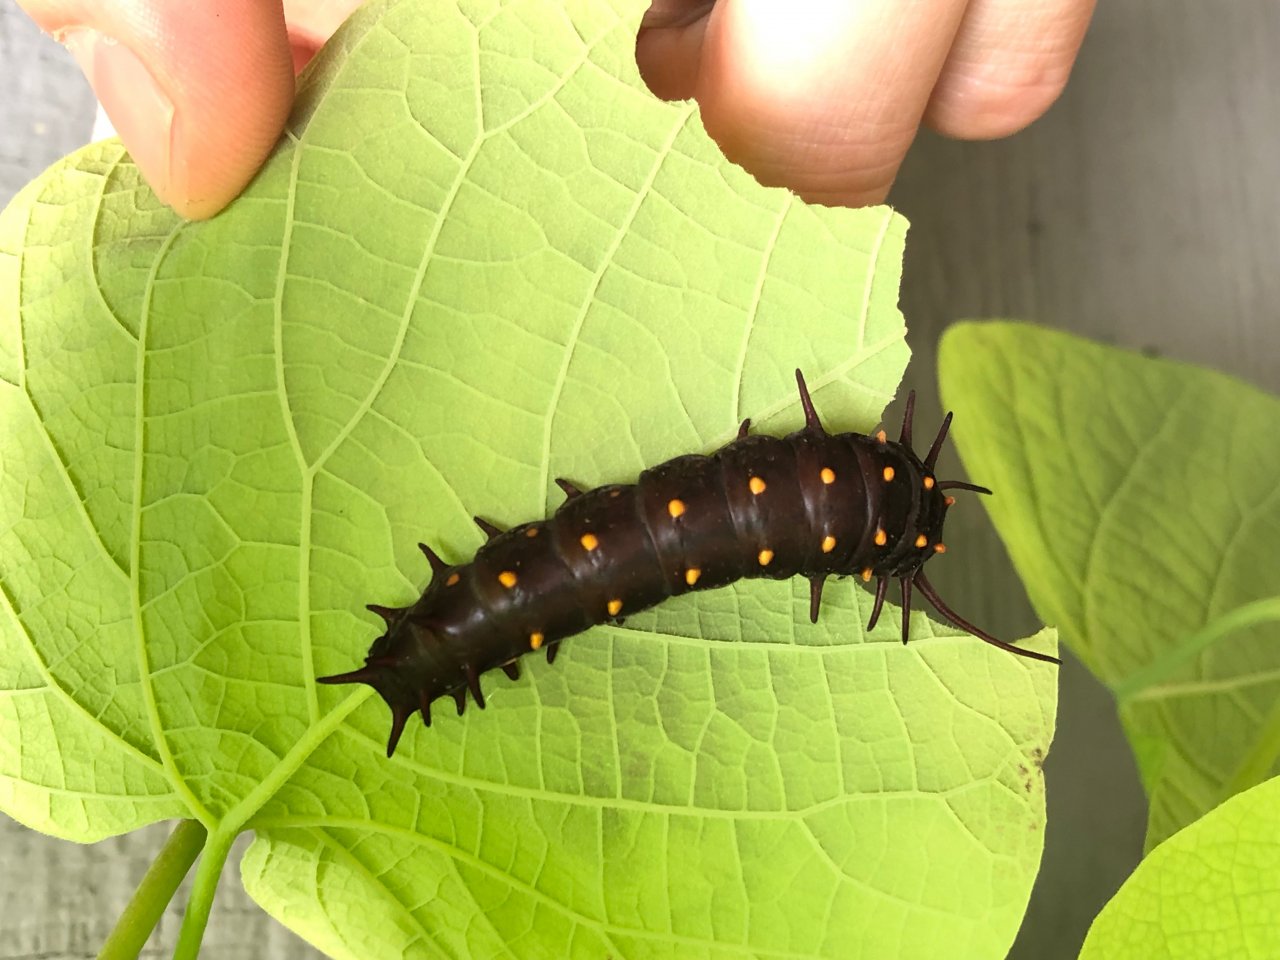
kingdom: Animalia
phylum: Arthropoda
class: Insecta
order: Lepidoptera
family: Papilionidae
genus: Battus
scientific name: Battus philenor
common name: Pipevine Swallowtail
